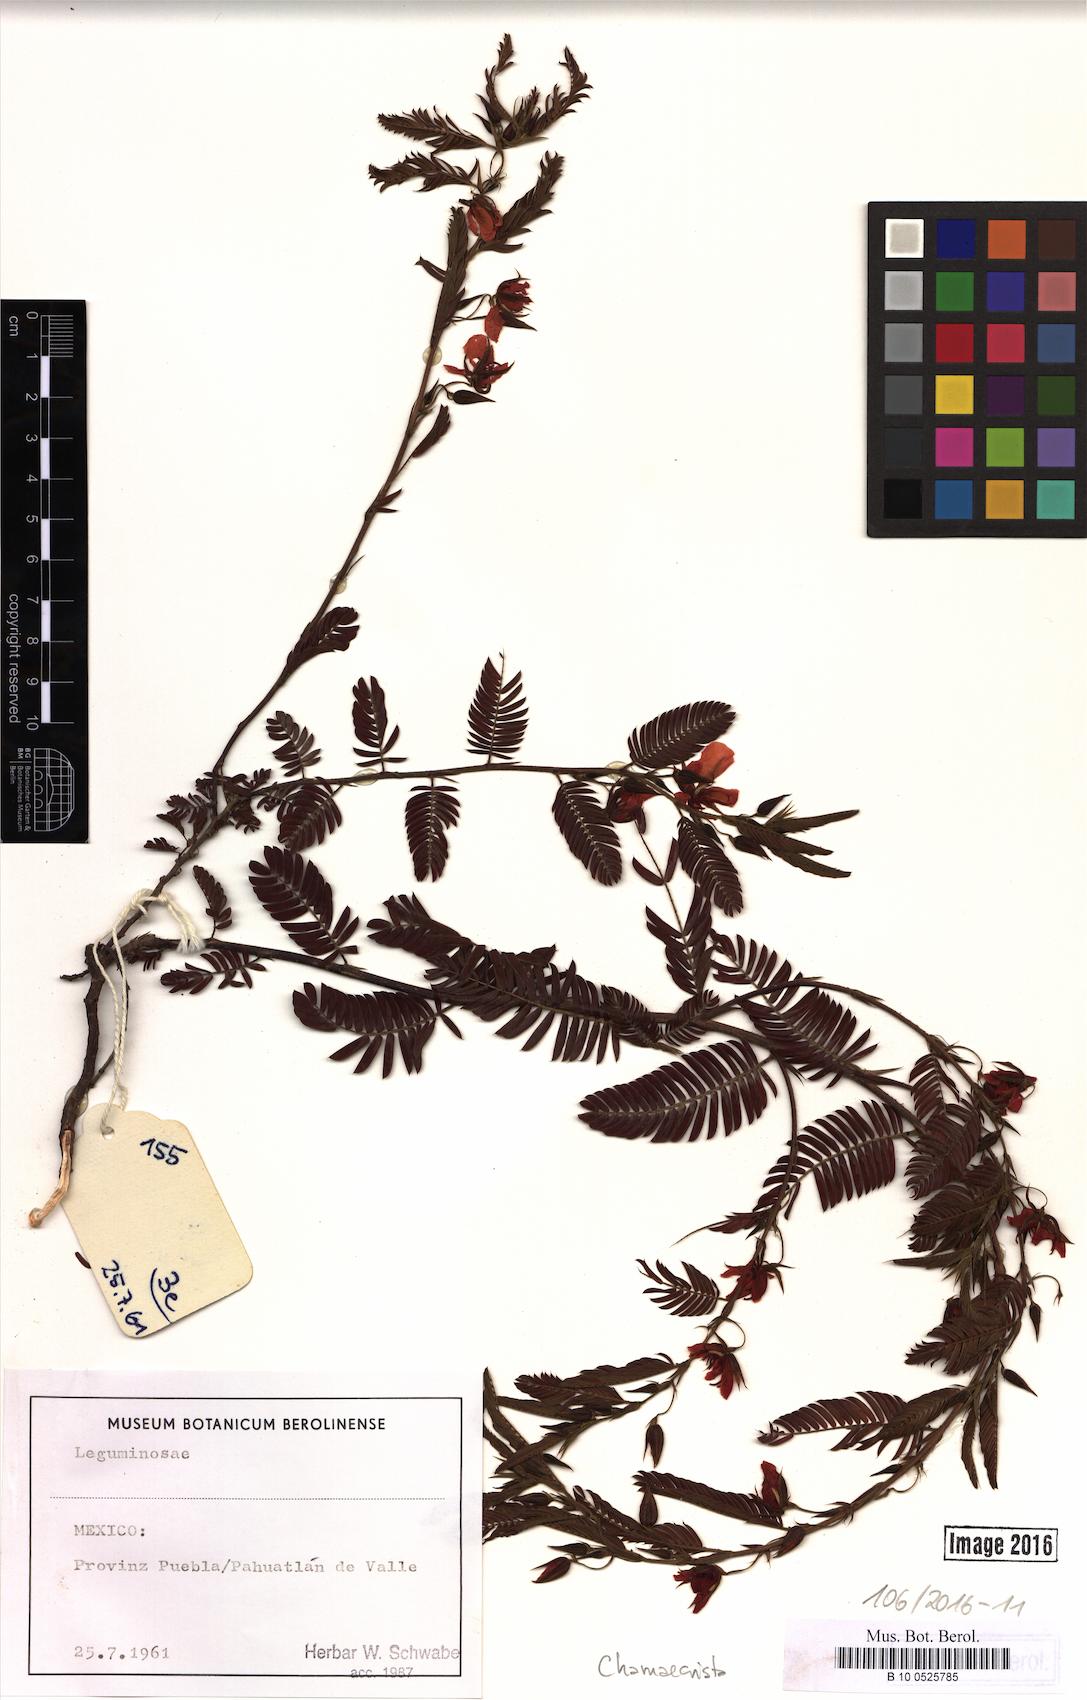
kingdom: Plantae
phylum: Tracheophyta
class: Magnoliopsida
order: Fabales
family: Fabaceae
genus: Chamaecrista
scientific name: Chamaecrista
